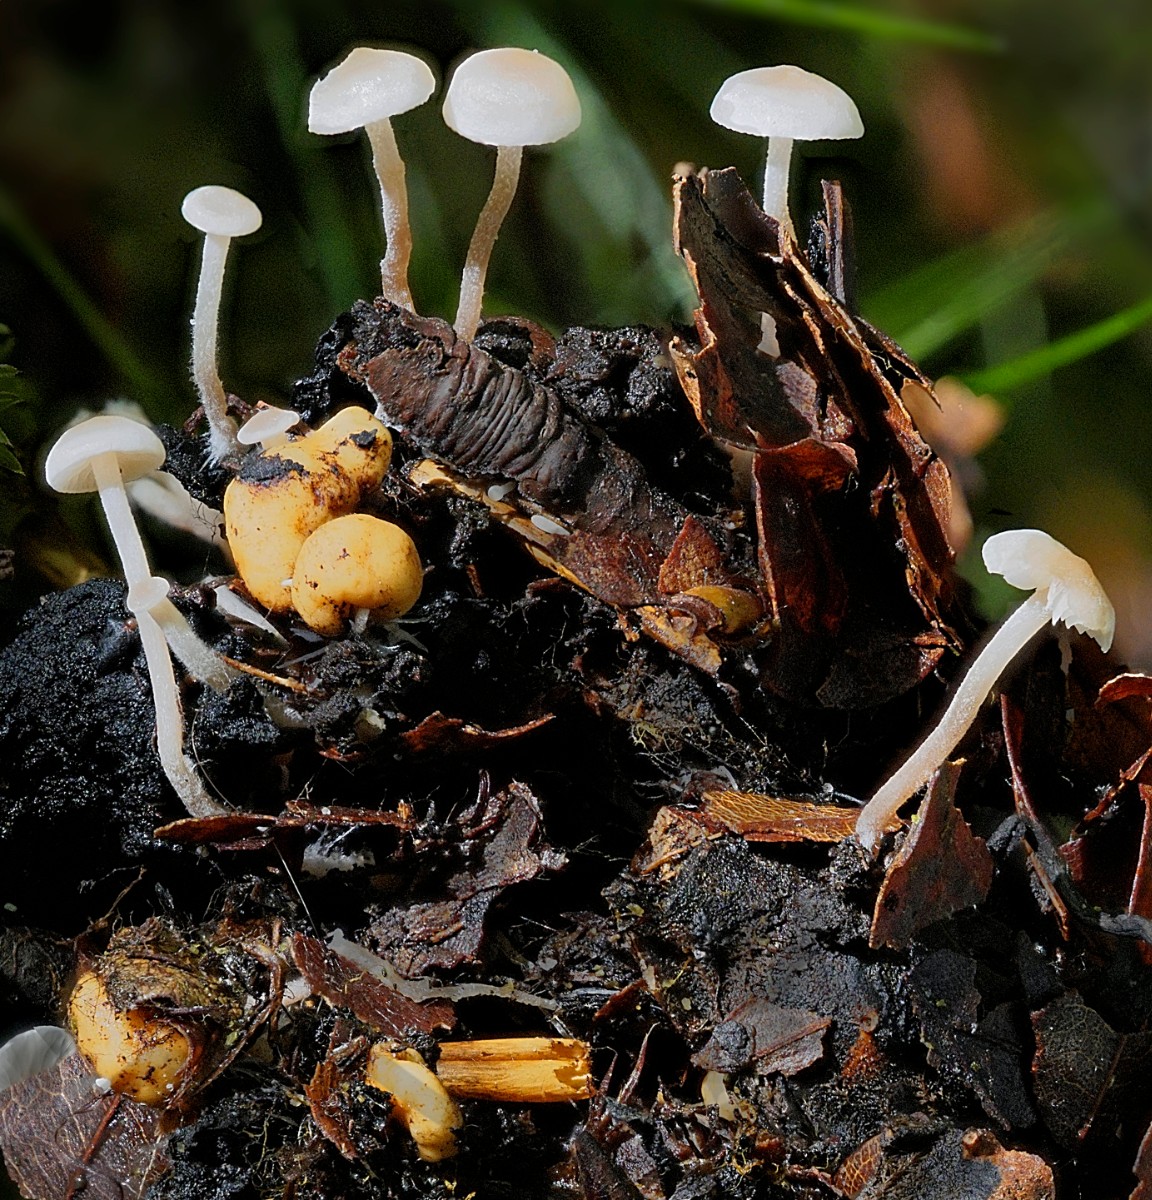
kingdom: Fungi
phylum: Basidiomycota
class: Agaricomycetes
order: Agaricales
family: Tricholomataceae
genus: Collybia
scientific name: Collybia cookei
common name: gulknoldet lighat
